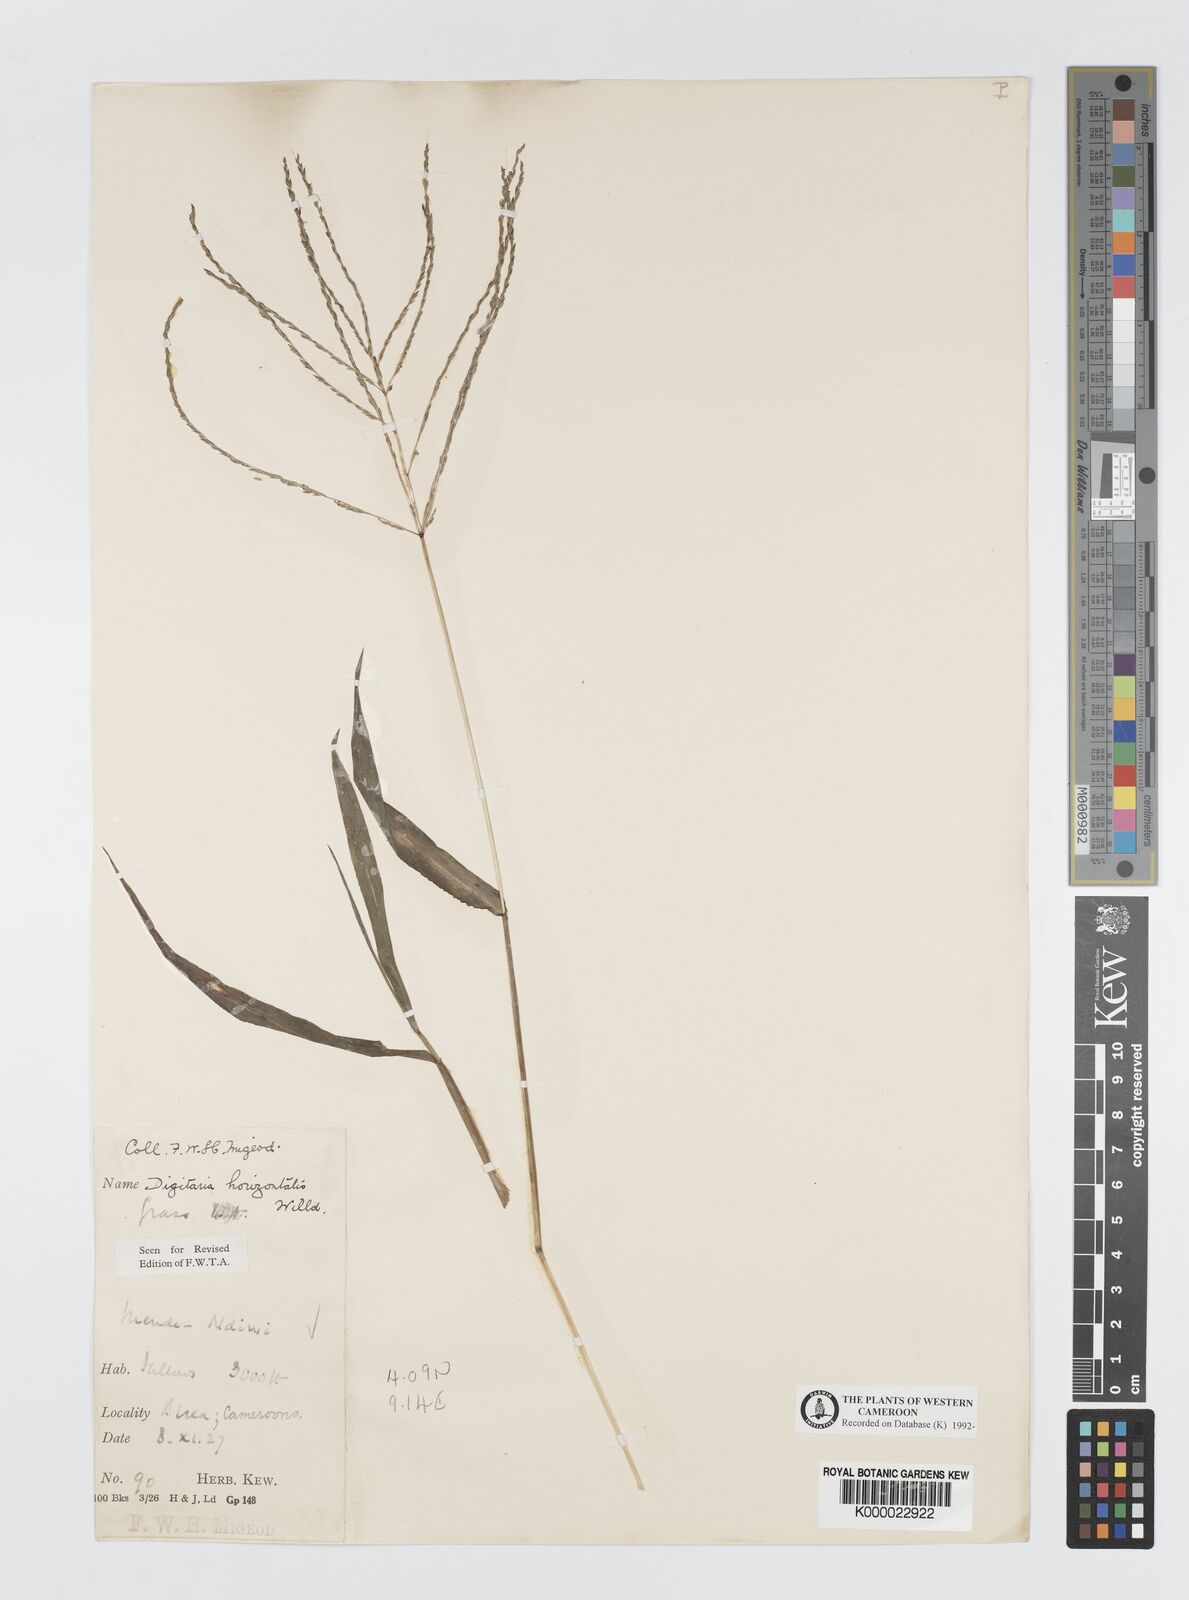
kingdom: Plantae
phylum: Tracheophyta
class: Liliopsida
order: Poales
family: Poaceae
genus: Digitaria
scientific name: Digitaria horizontalis
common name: Jamaican crabgrass
